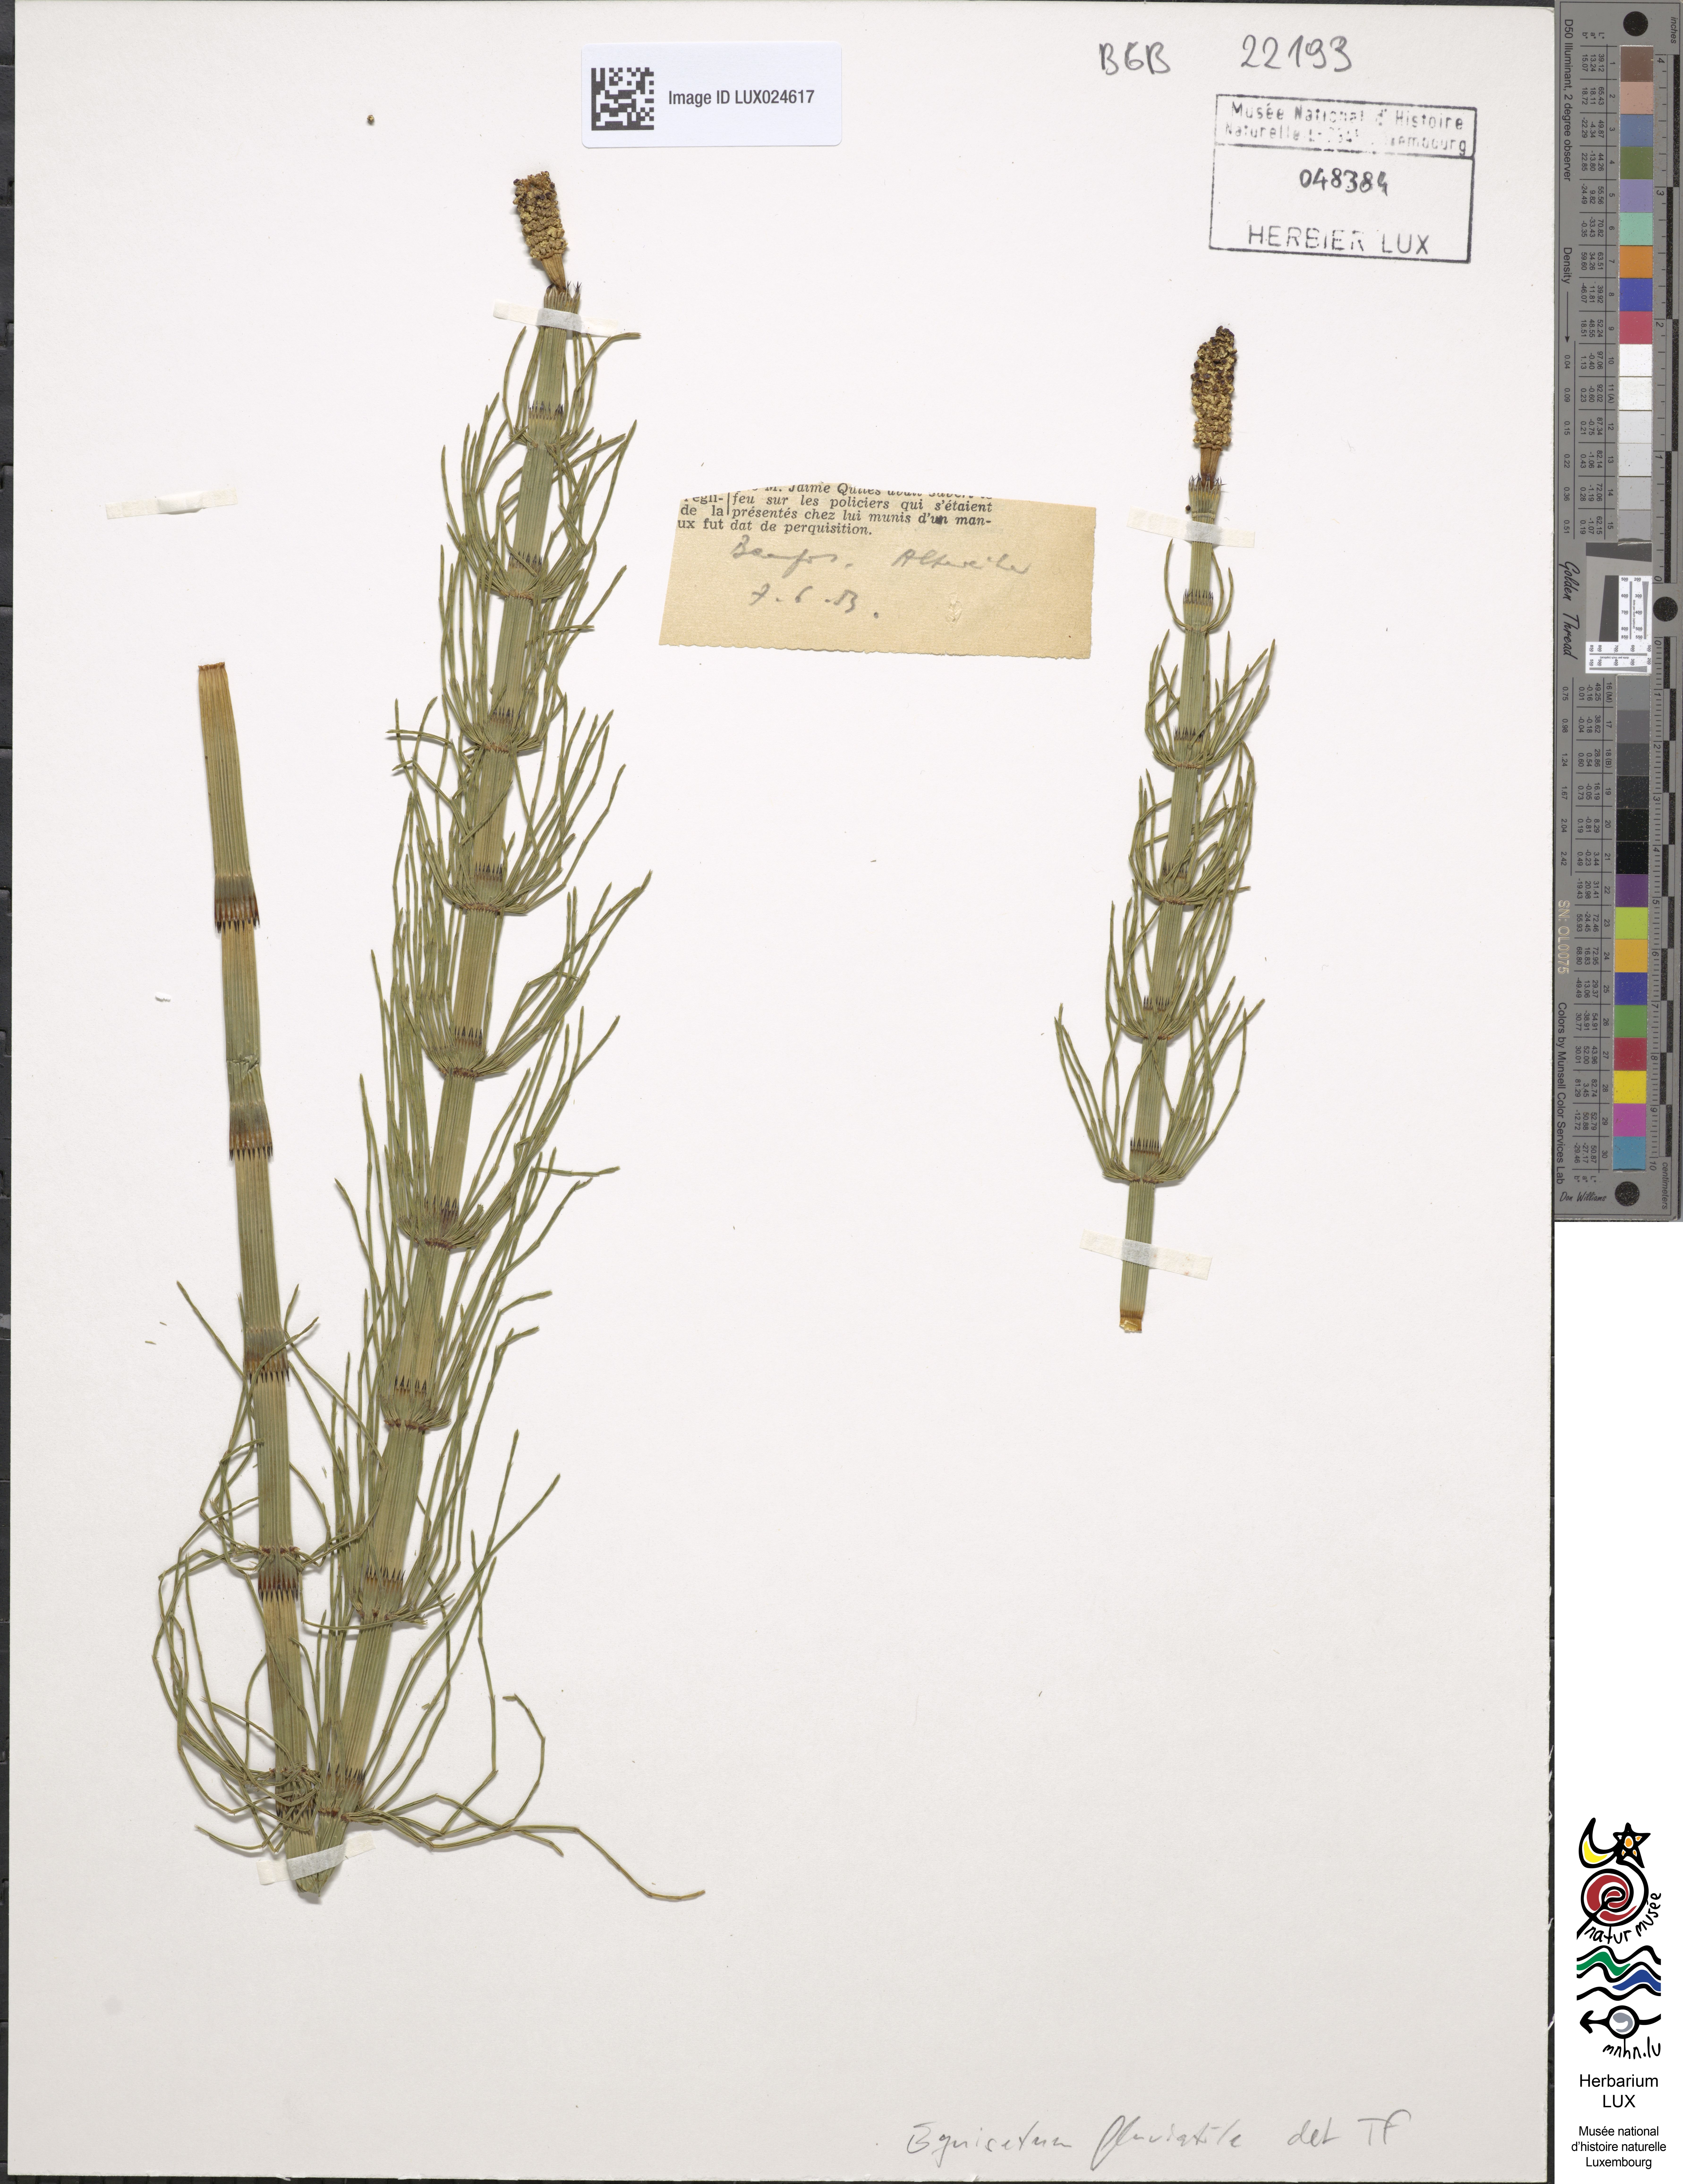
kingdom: Plantae
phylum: Tracheophyta
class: Polypodiopsida
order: Equisetales
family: Equisetaceae
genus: Equisetum
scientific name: Equisetum fluviatile
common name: Water horsetail
